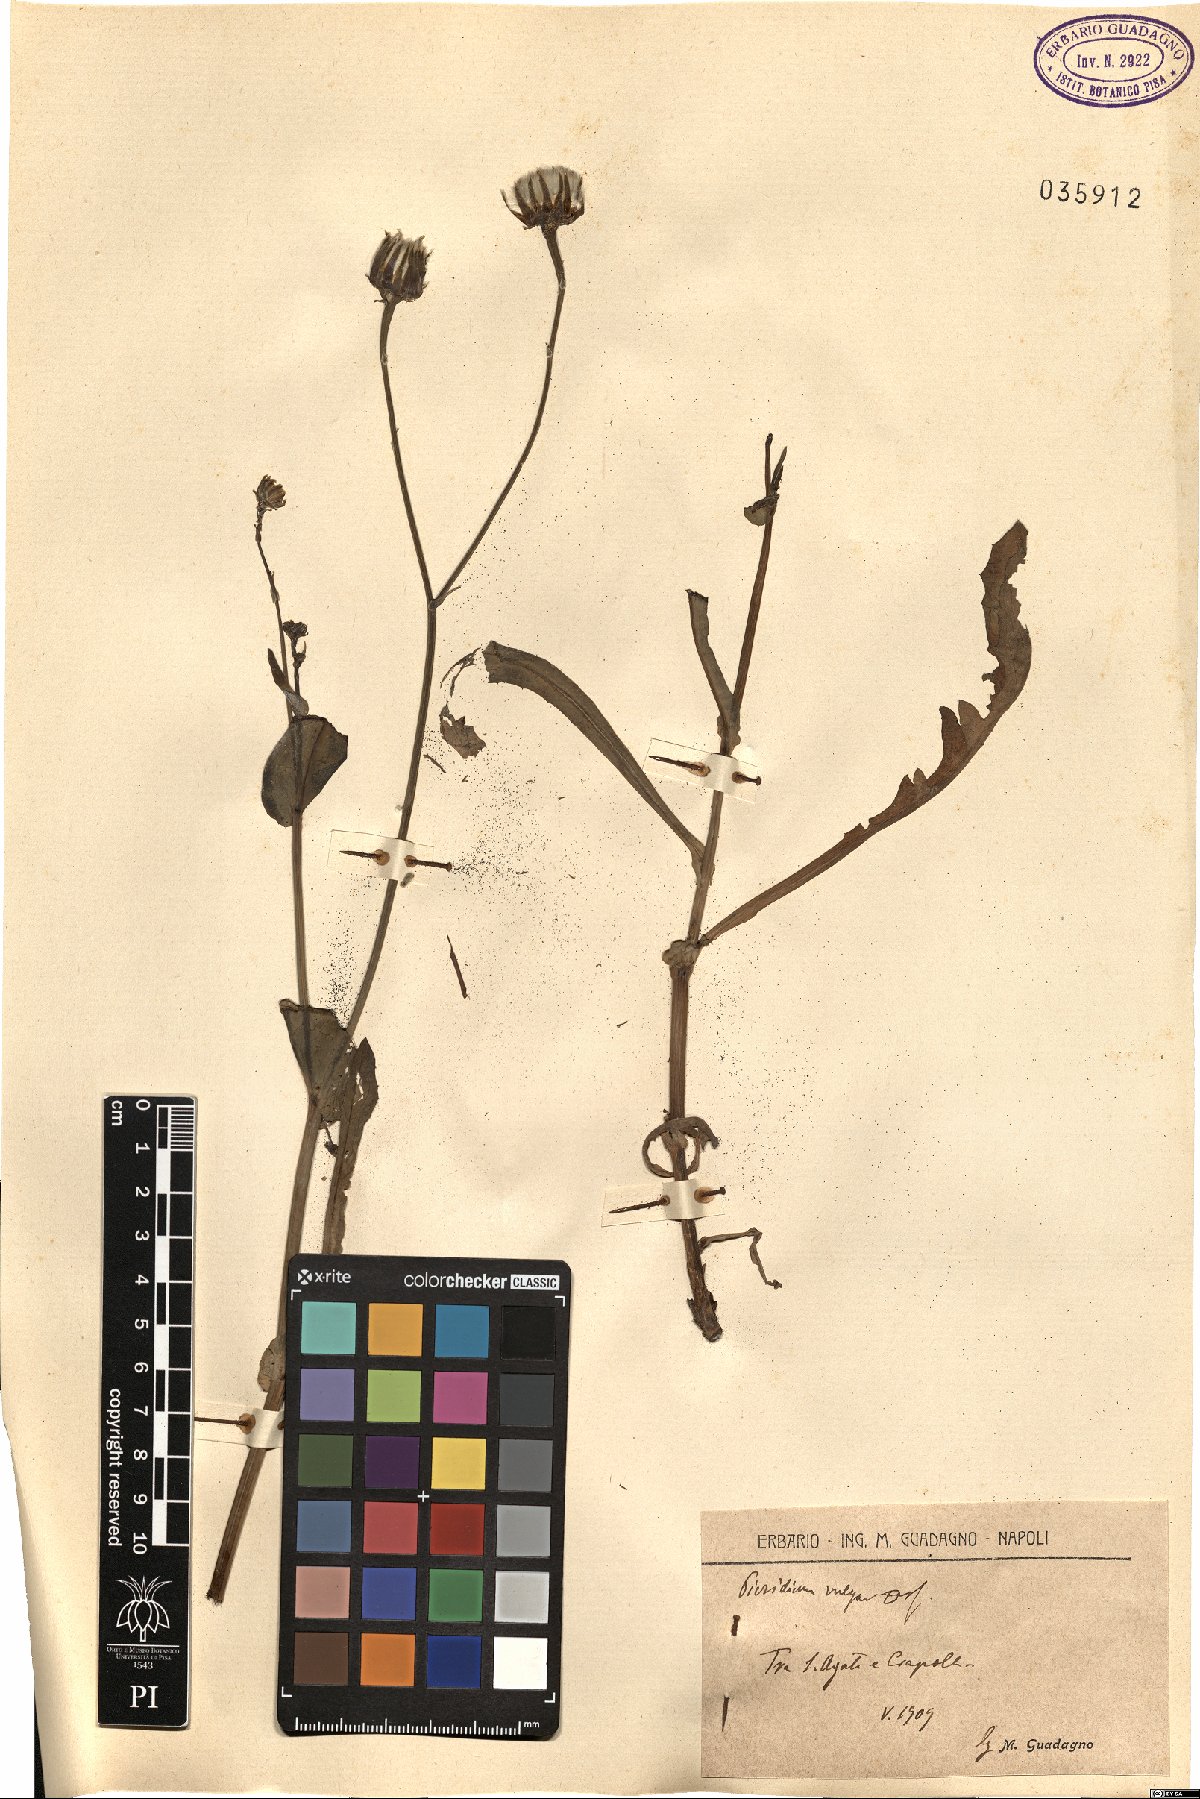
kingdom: Plantae
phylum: Tracheophyta
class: Magnoliopsida
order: Asterales
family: Asteraceae
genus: Reichardia
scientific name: Reichardia picroides
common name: Common brighteyes
